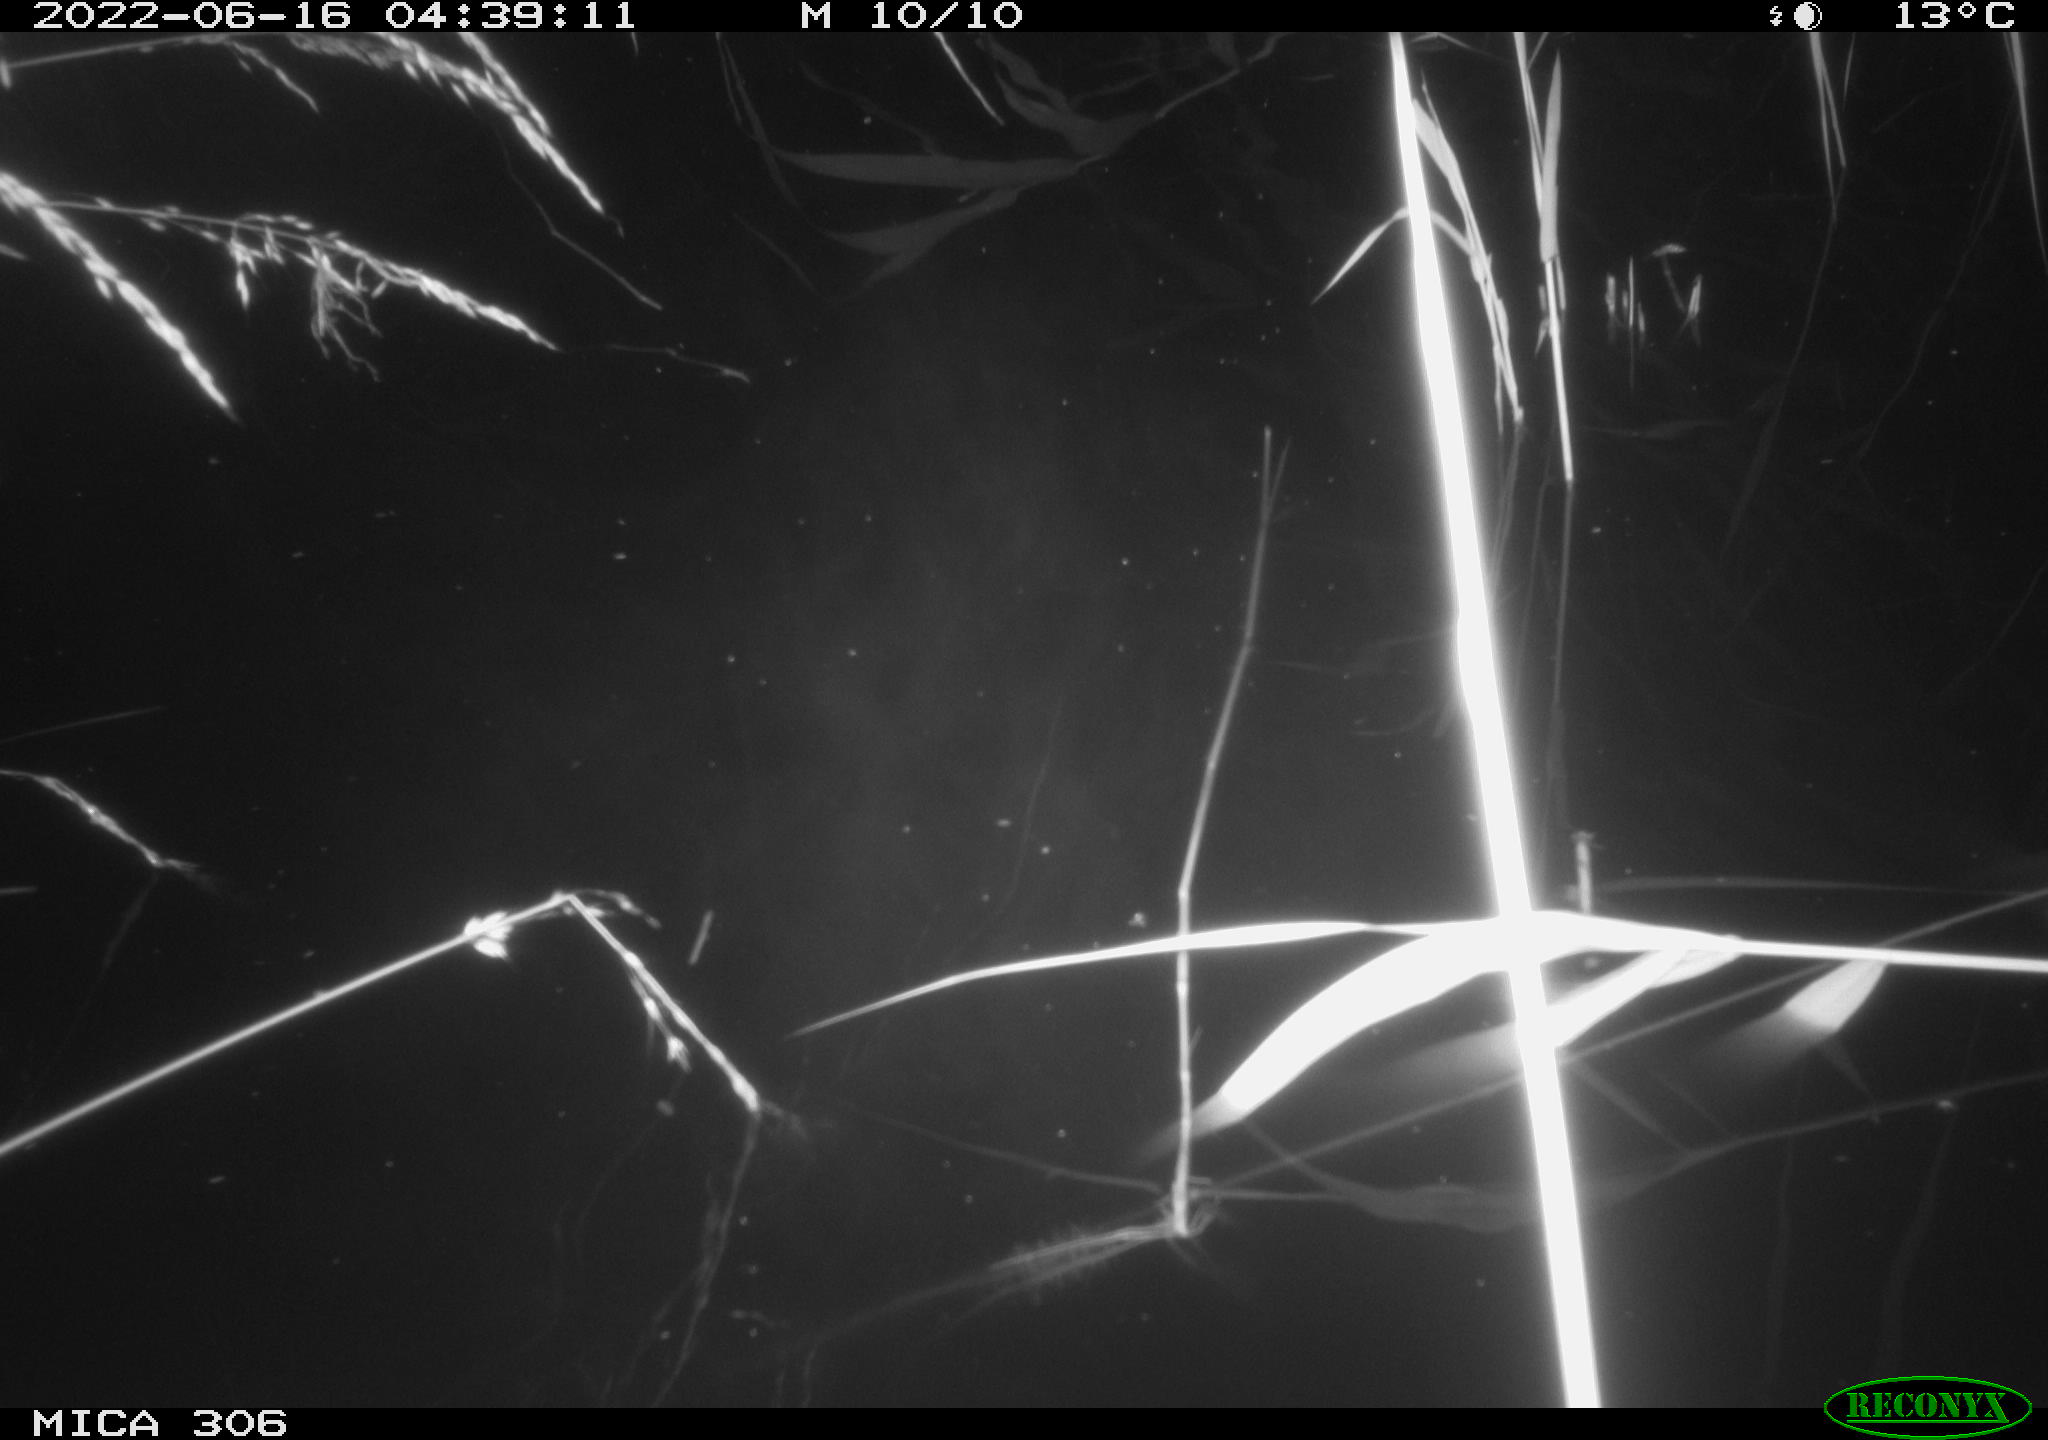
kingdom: Animalia
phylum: Chordata
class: Aves
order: Anseriformes
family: Anatidae
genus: Anas
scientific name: Anas platyrhynchos
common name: Mallard
